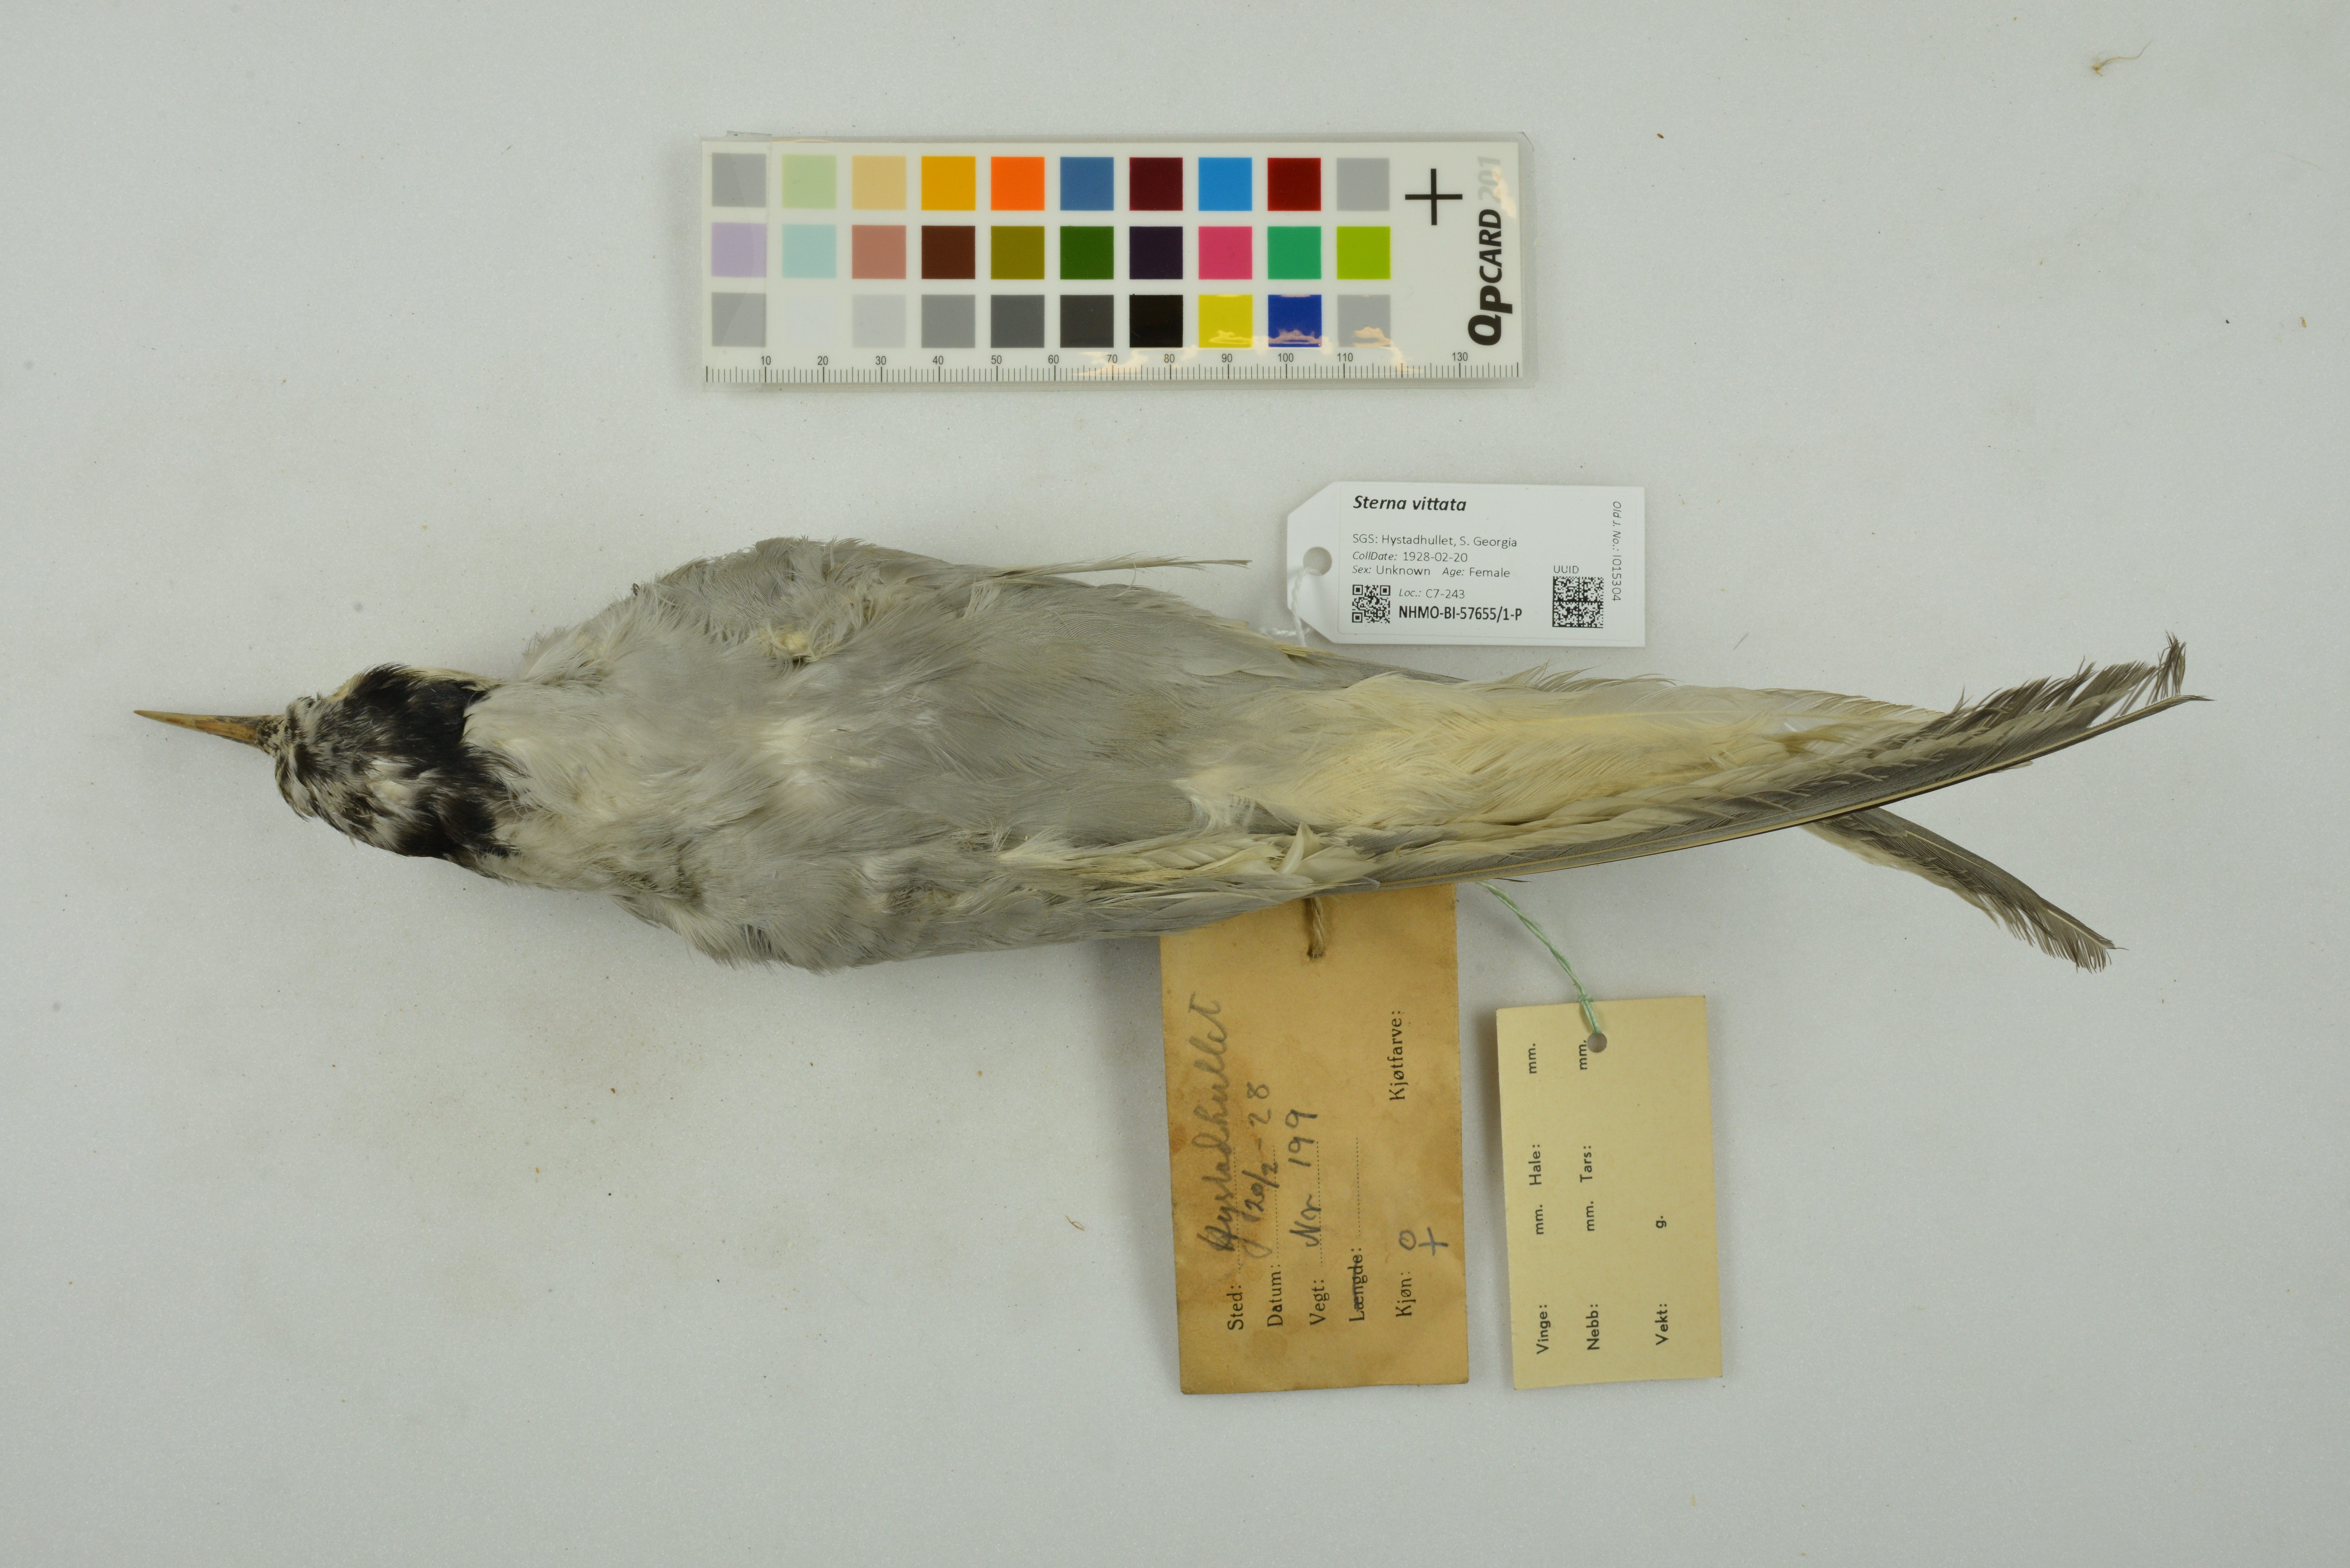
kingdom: Animalia
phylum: Chordata
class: Aves
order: Charadriiformes
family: Laridae
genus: Sterna
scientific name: Sterna vittata
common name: Antarctic tern
